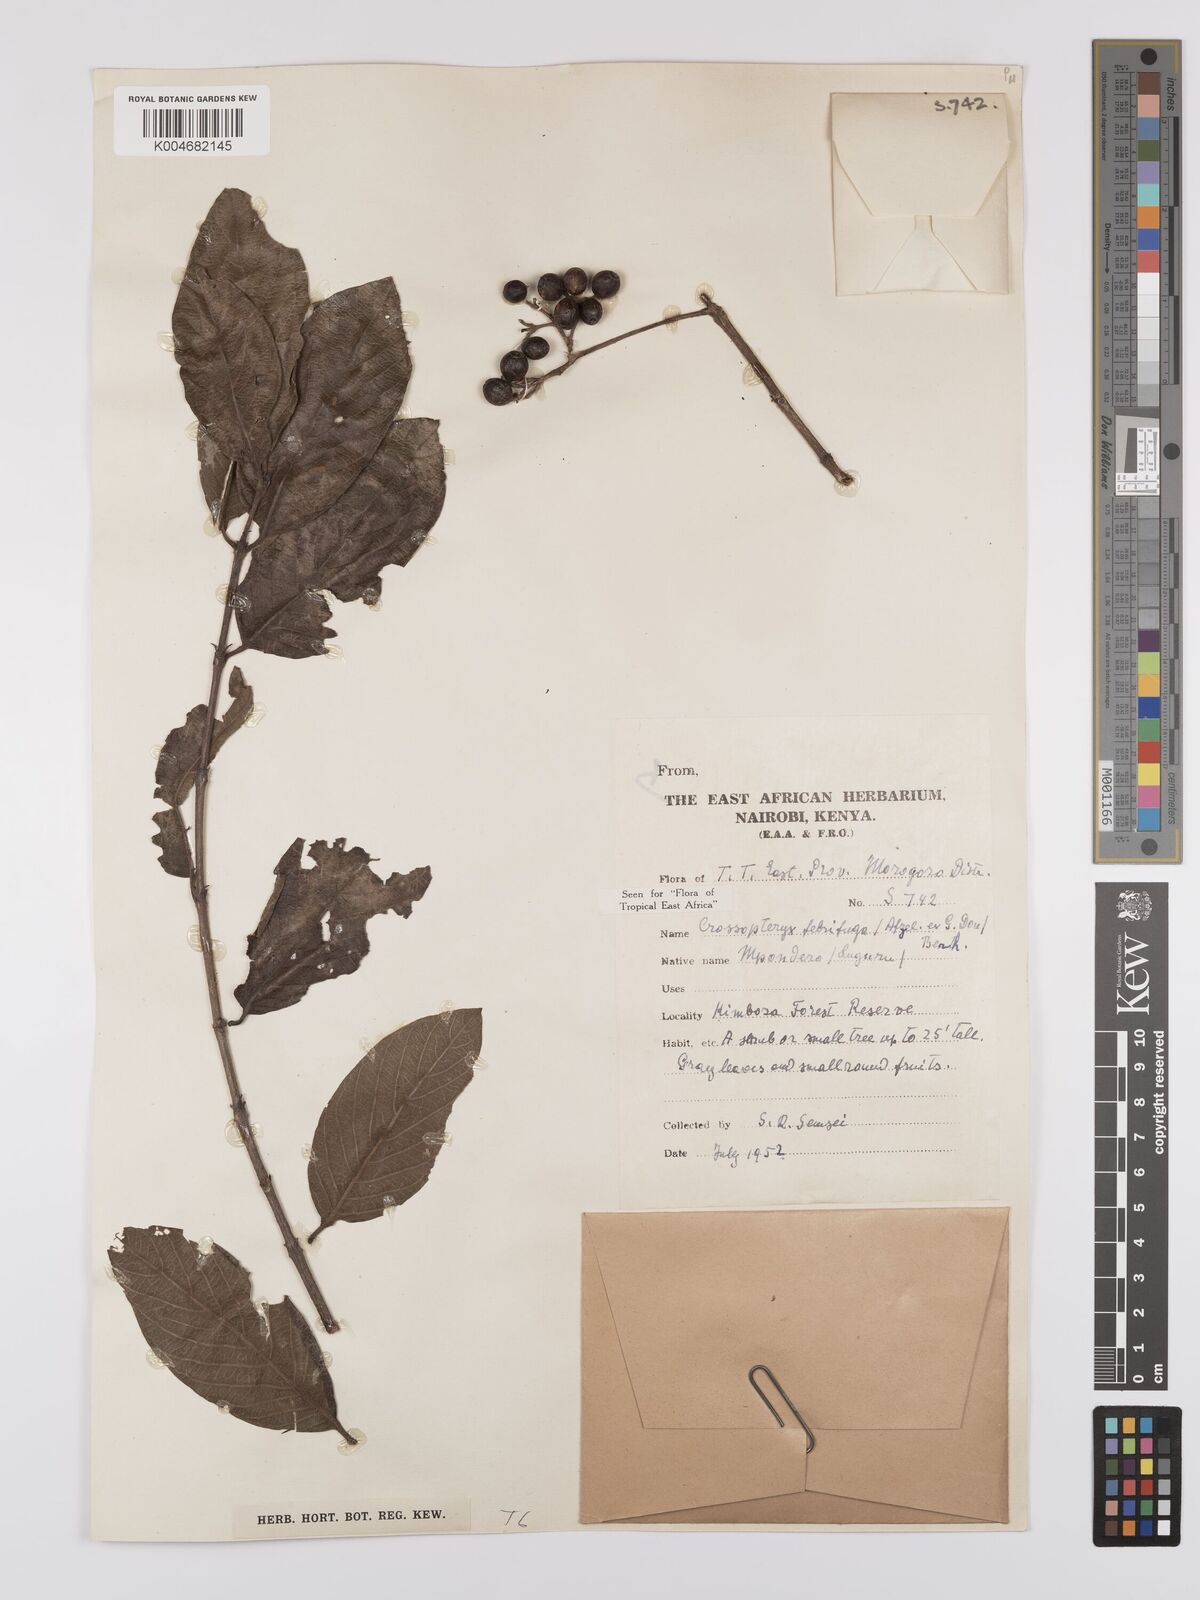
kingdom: Plantae
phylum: Tracheophyta
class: Magnoliopsida
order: Gentianales
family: Rubiaceae
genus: Crossopteryx
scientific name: Crossopteryx febrifuga
